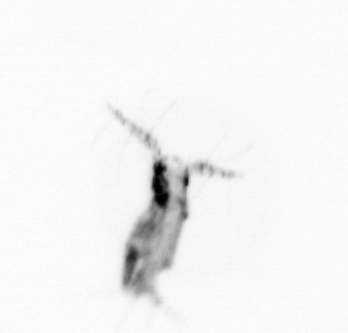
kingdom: Animalia
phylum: Arthropoda
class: Copepoda
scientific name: Copepoda
